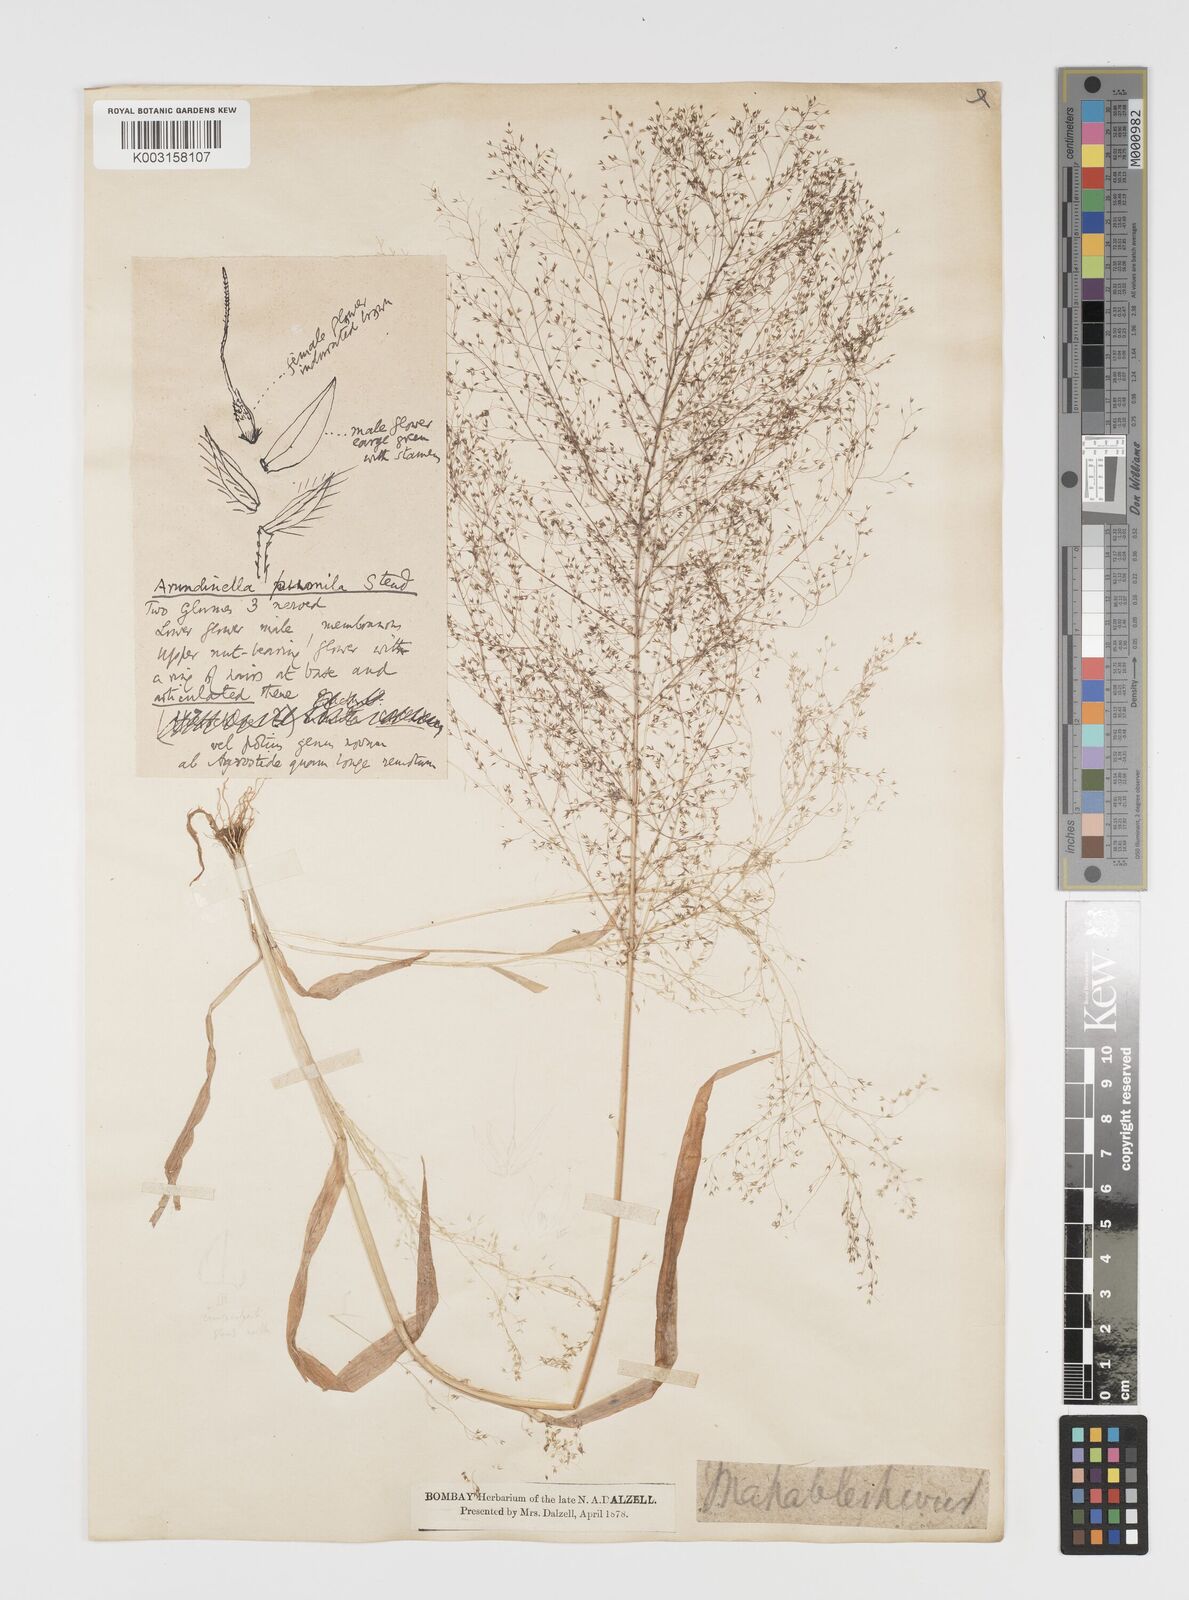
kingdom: Plantae
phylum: Tracheophyta
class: Liliopsida
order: Poales
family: Poaceae
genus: Arundinella
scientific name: Arundinella pumila
